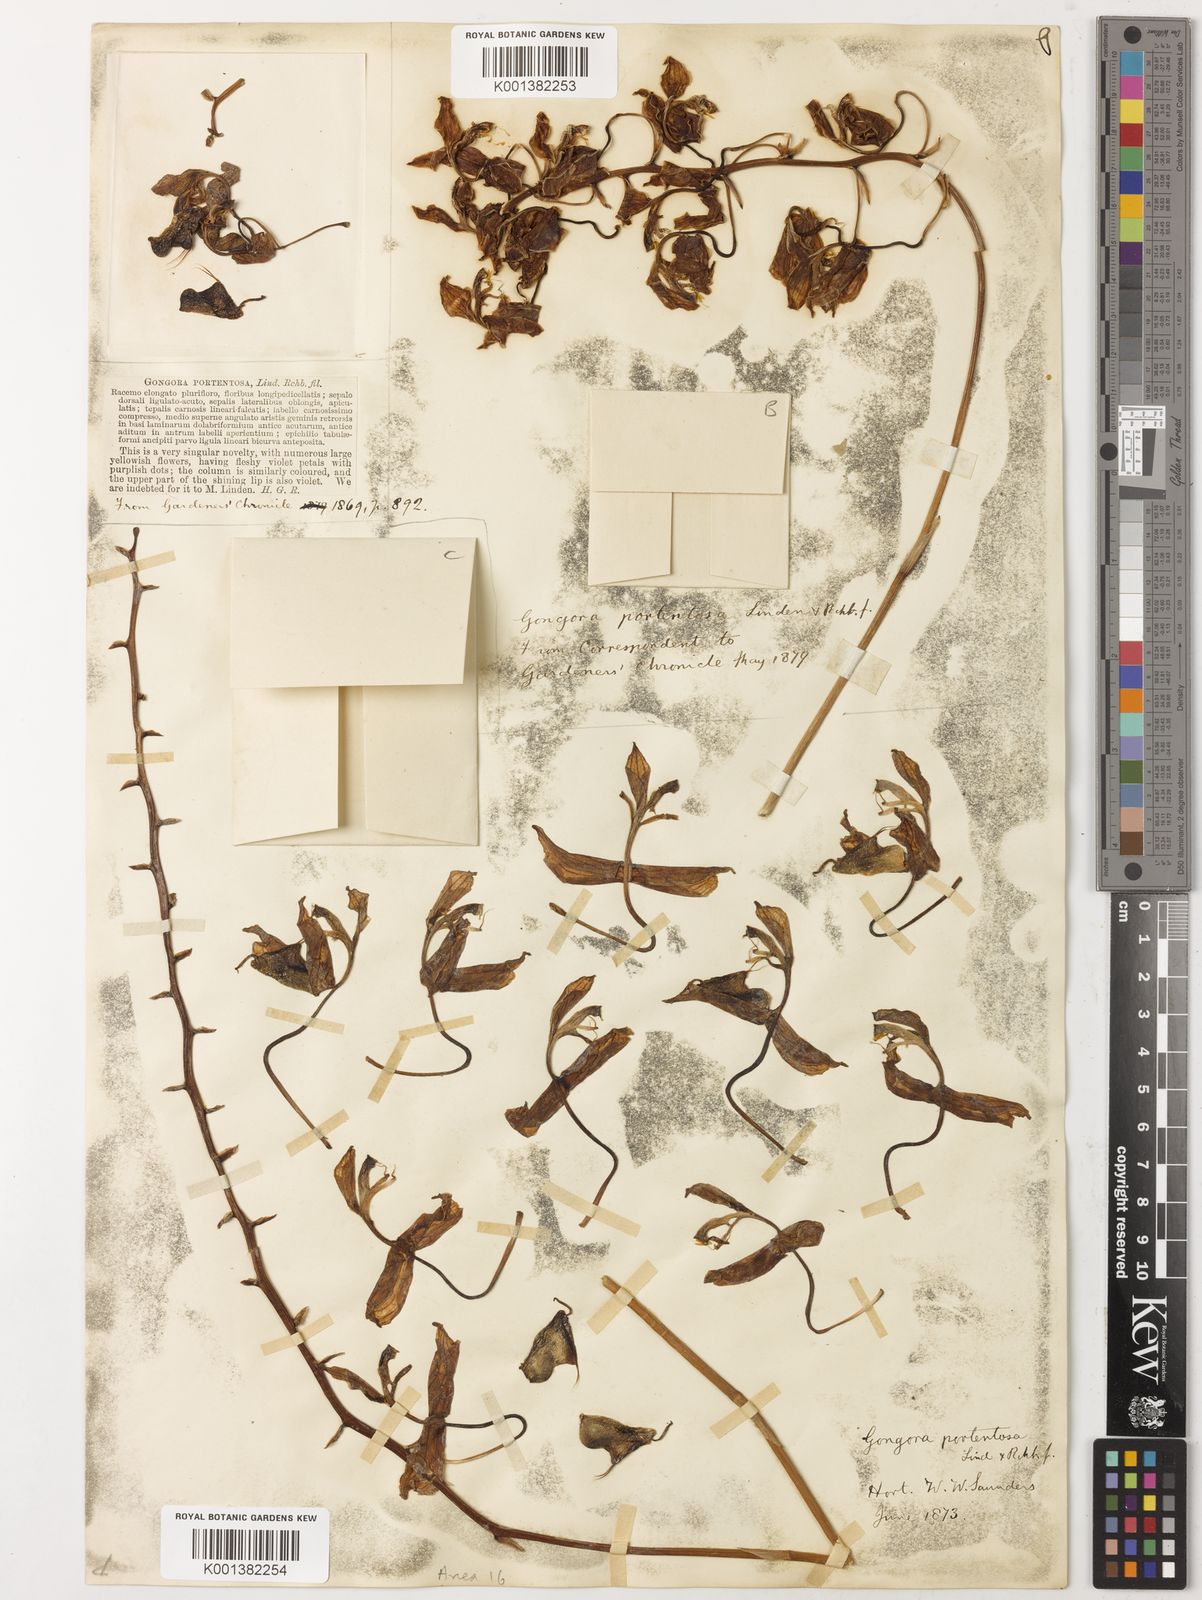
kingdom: Plantae
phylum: Tracheophyta
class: Liliopsida
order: Asparagales
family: Orchidaceae
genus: Gongora
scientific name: Gongora portentosa
